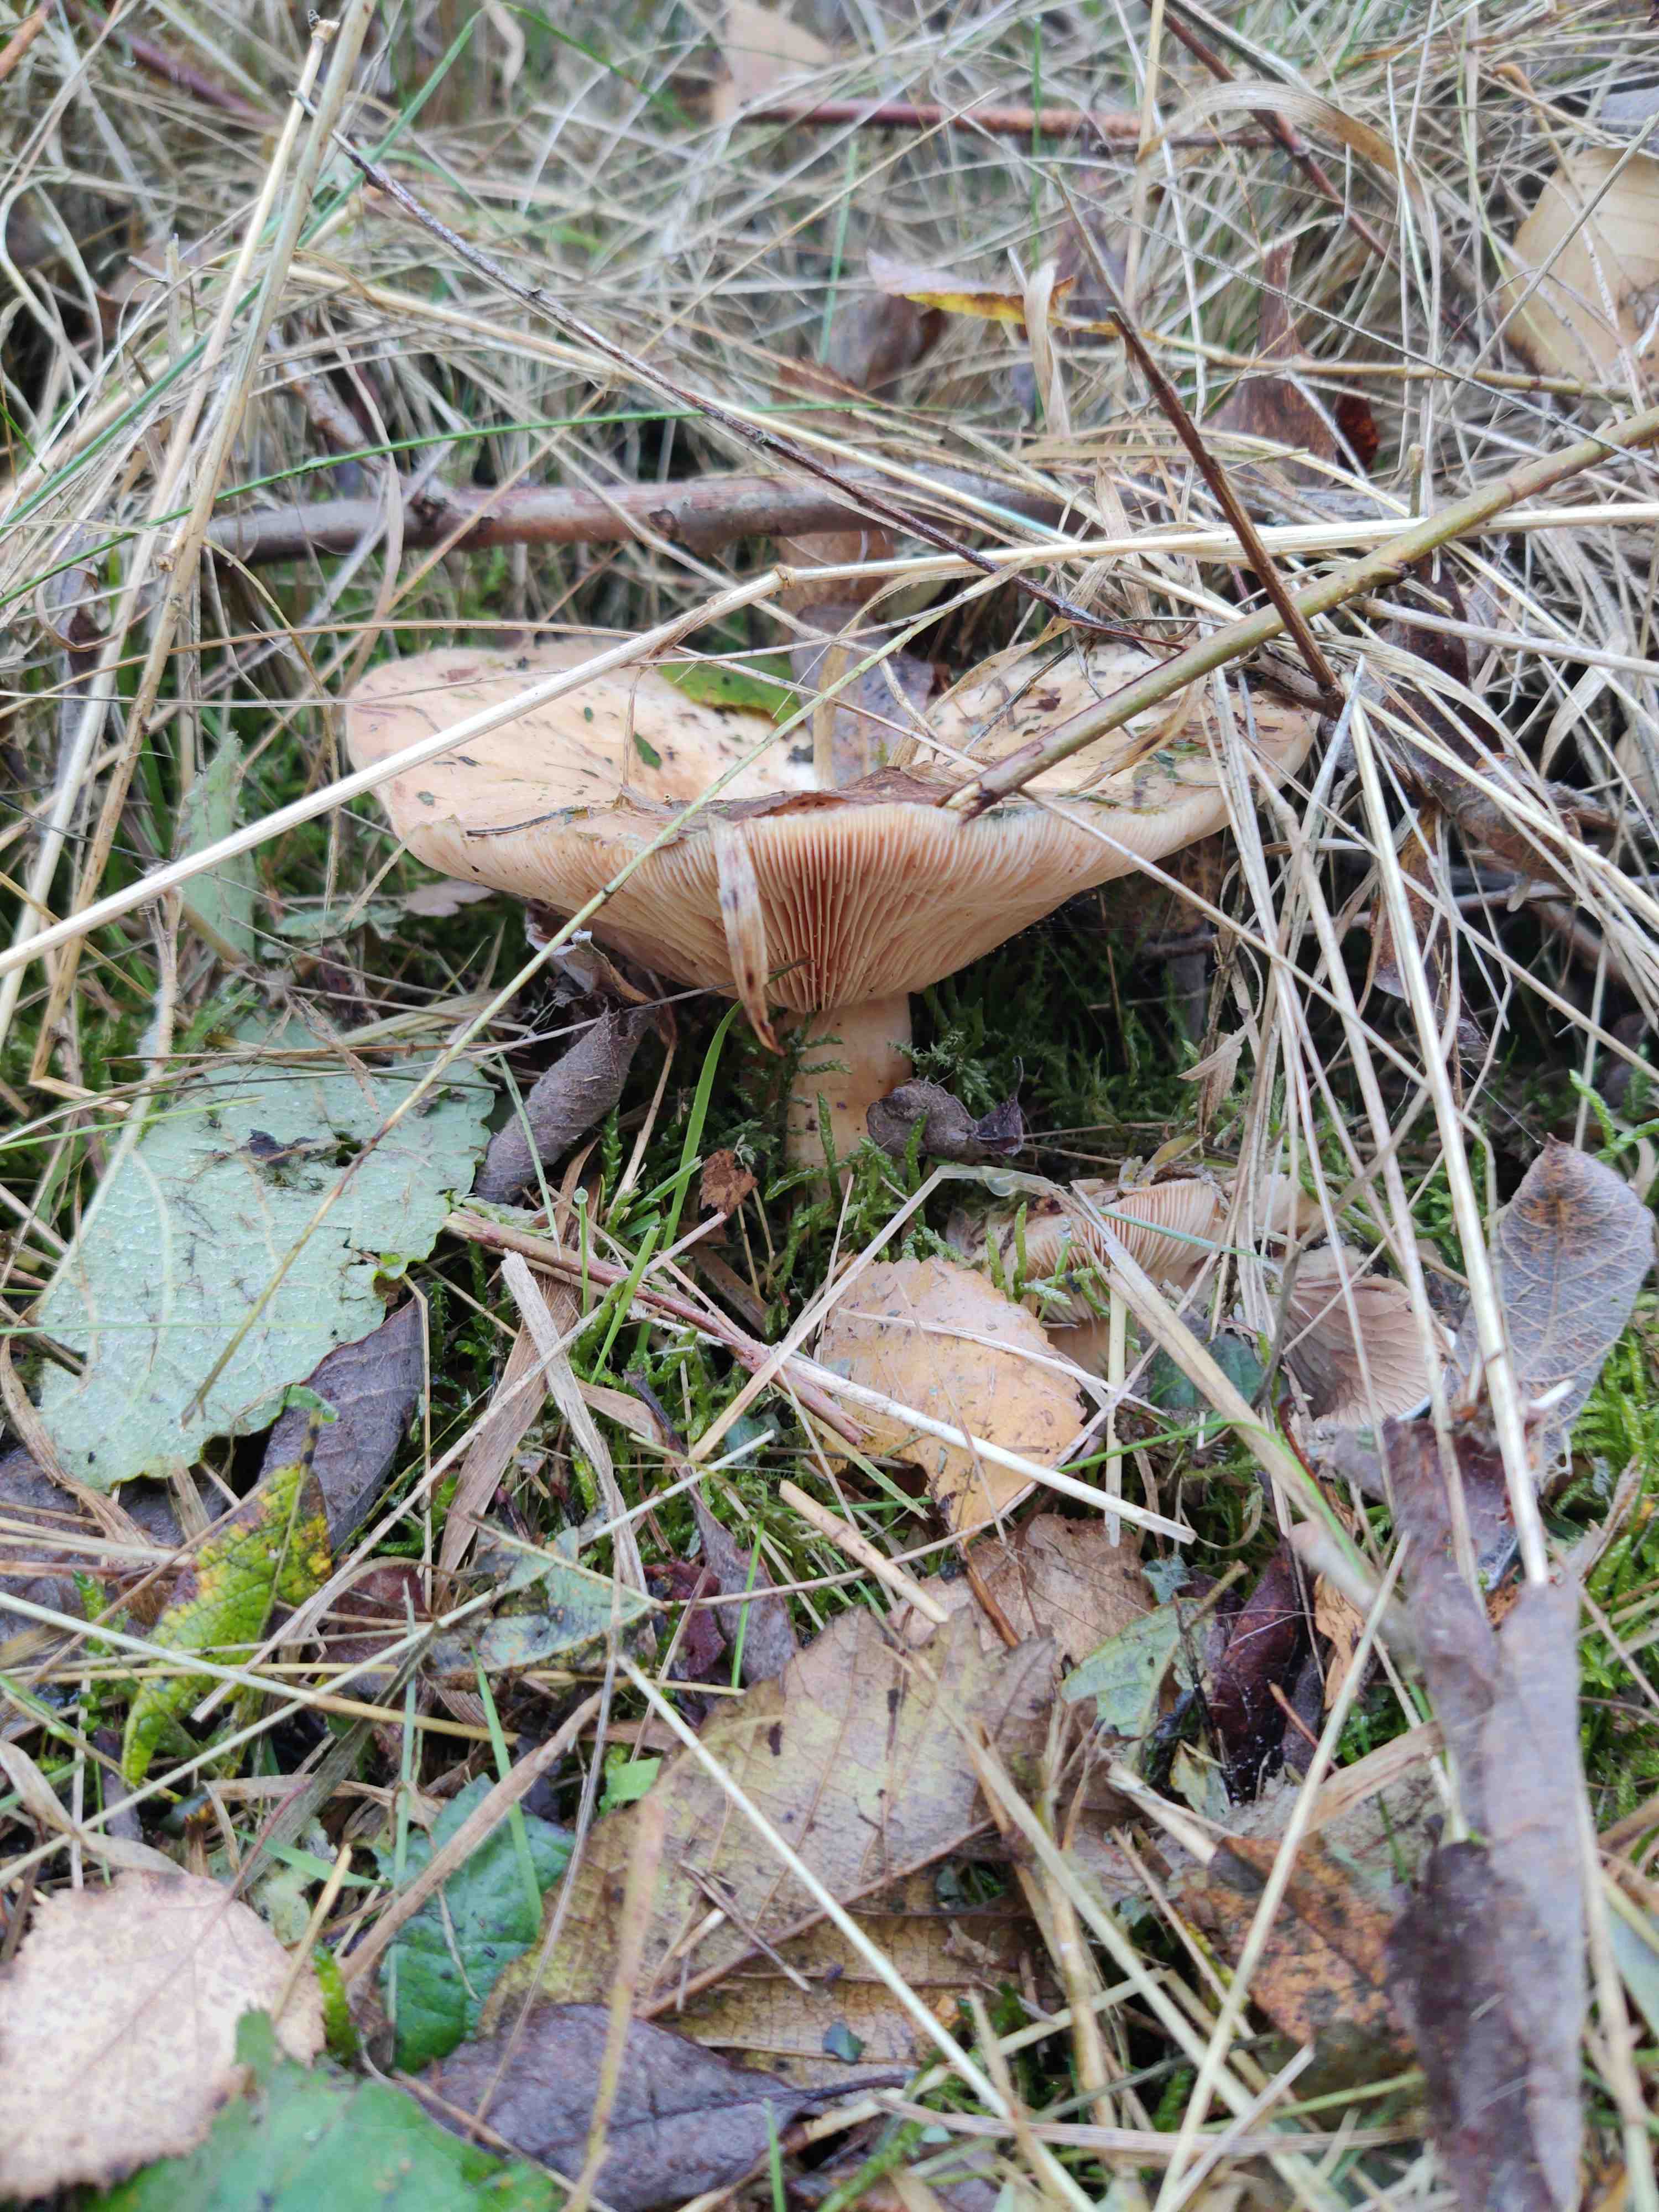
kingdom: Fungi
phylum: Basidiomycota
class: Agaricomycetes
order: Russulales
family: Russulaceae
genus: Lactarius
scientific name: Lactarius
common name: mælkehat
